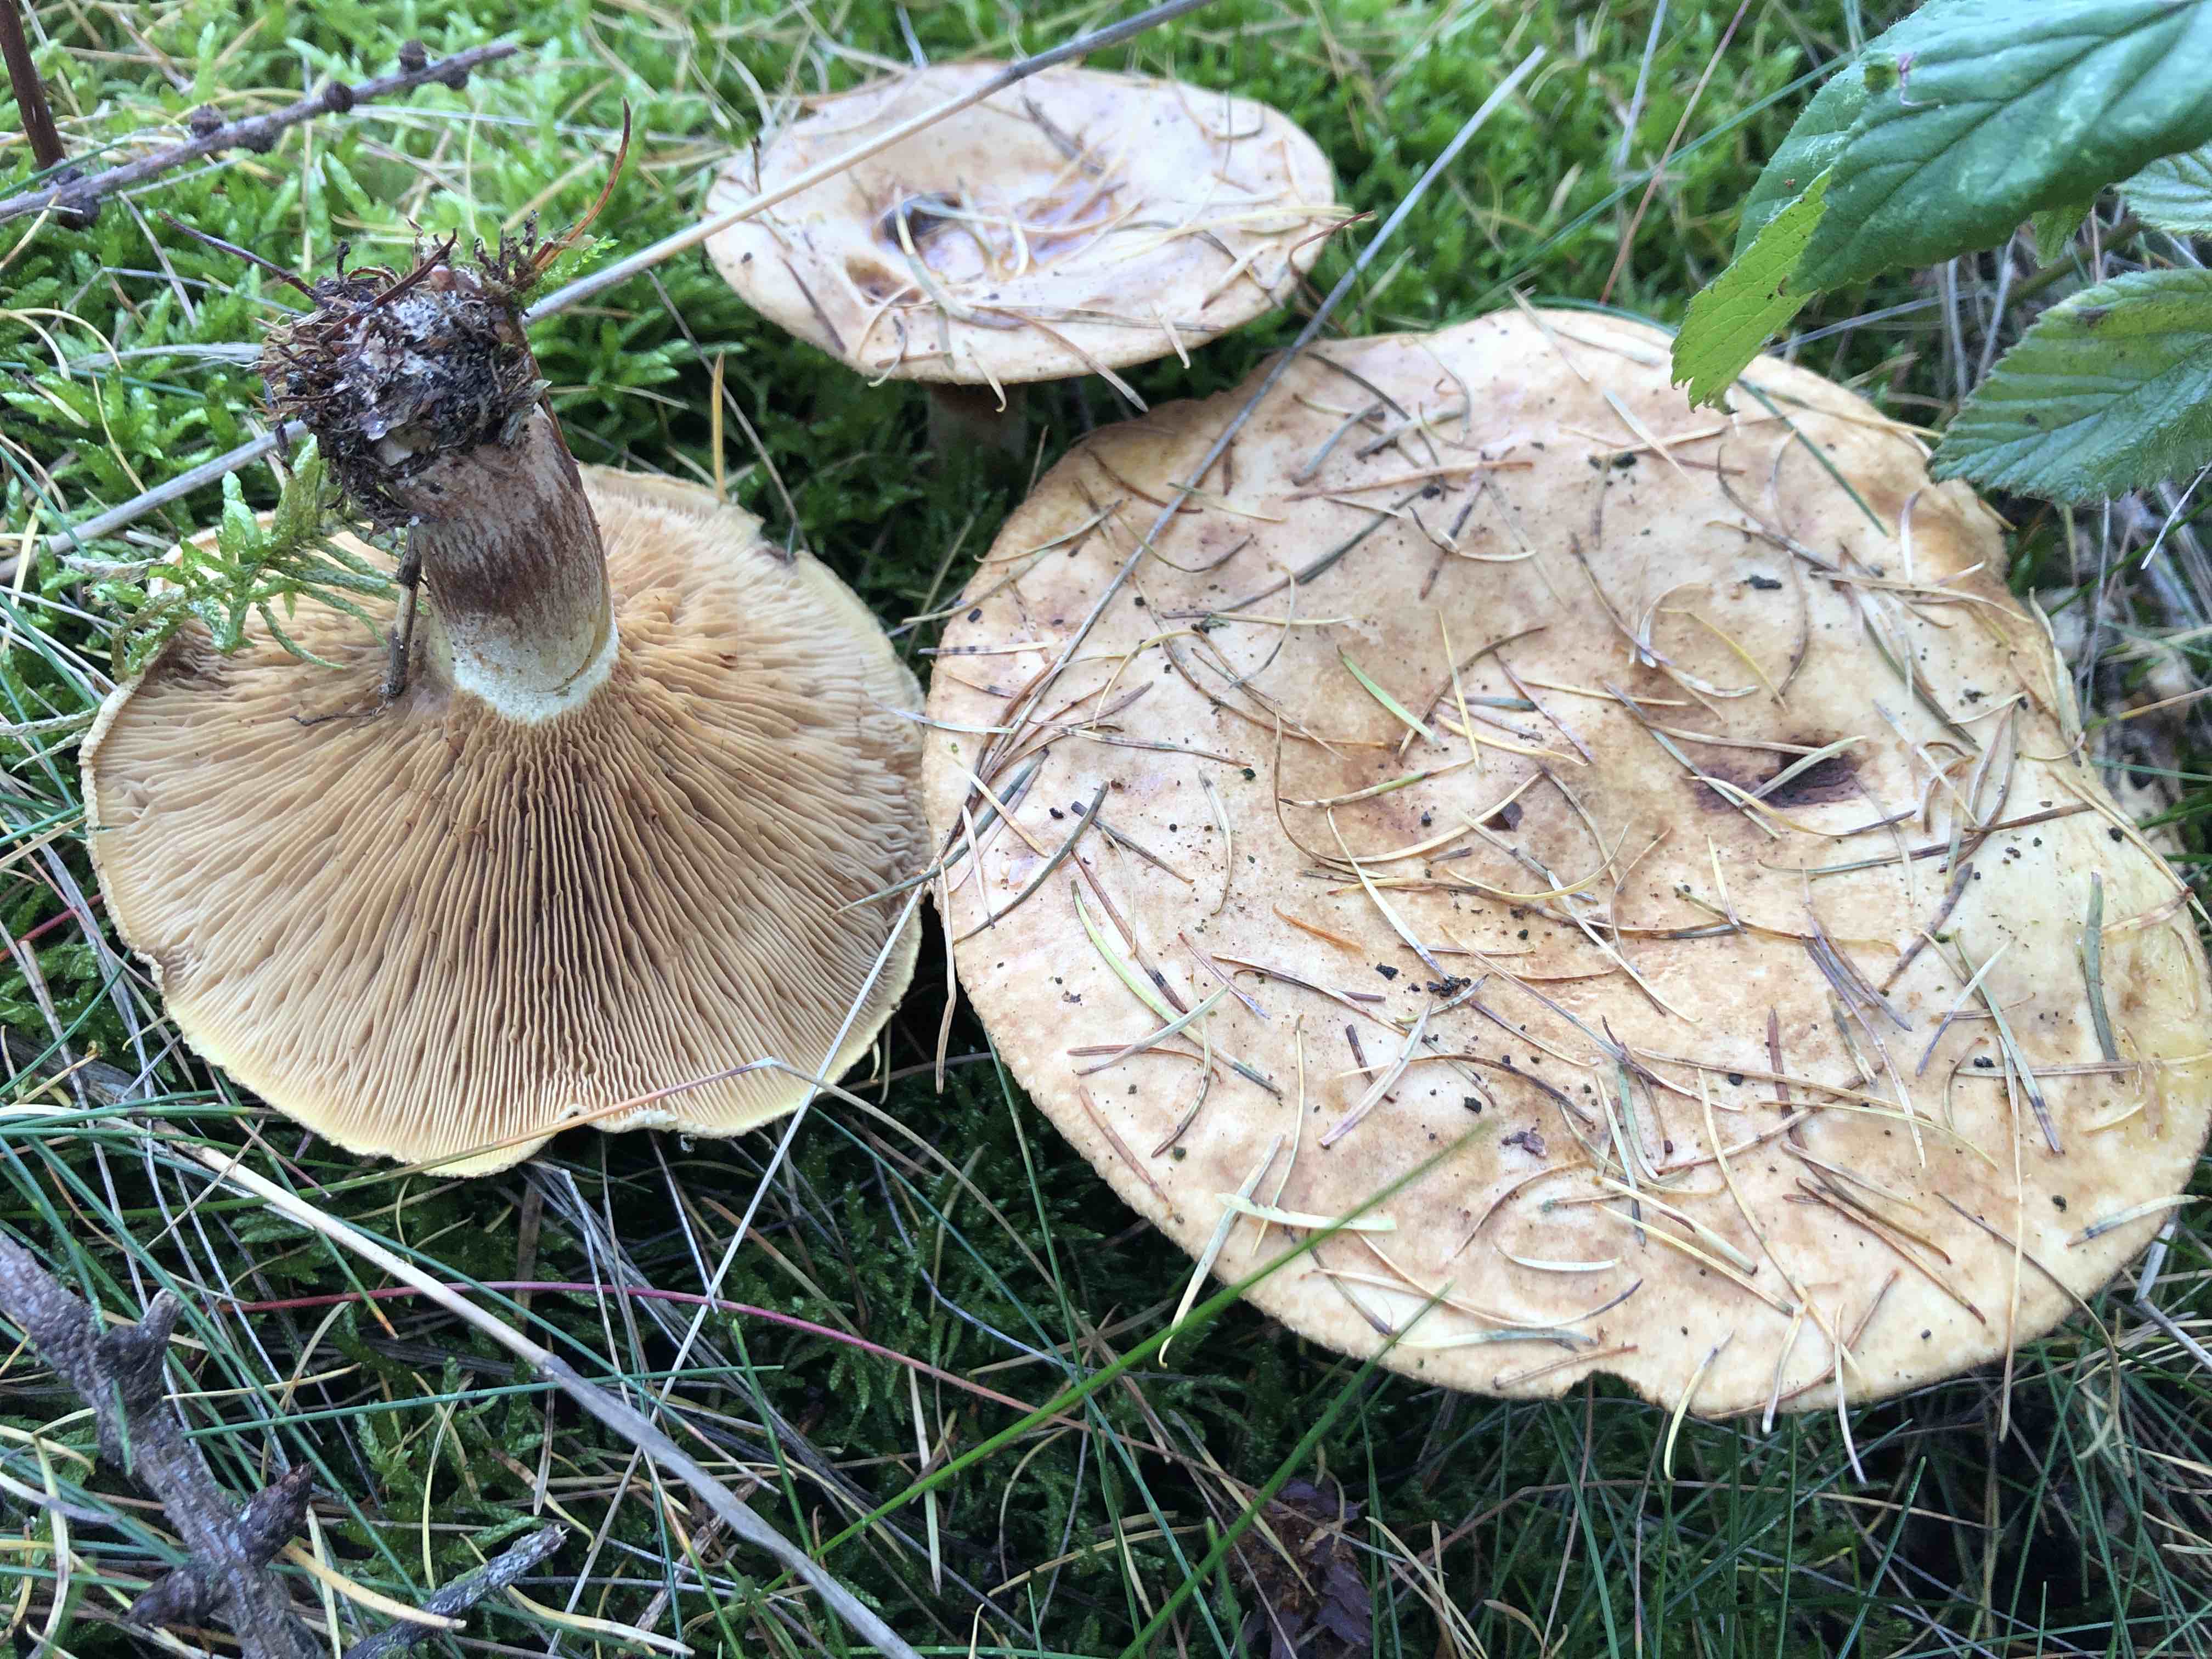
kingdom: Fungi
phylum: Basidiomycota
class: Agaricomycetes
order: Boletales
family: Paxillaceae
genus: Paxillus
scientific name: Paxillus involutus
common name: almindelig netbladhat
